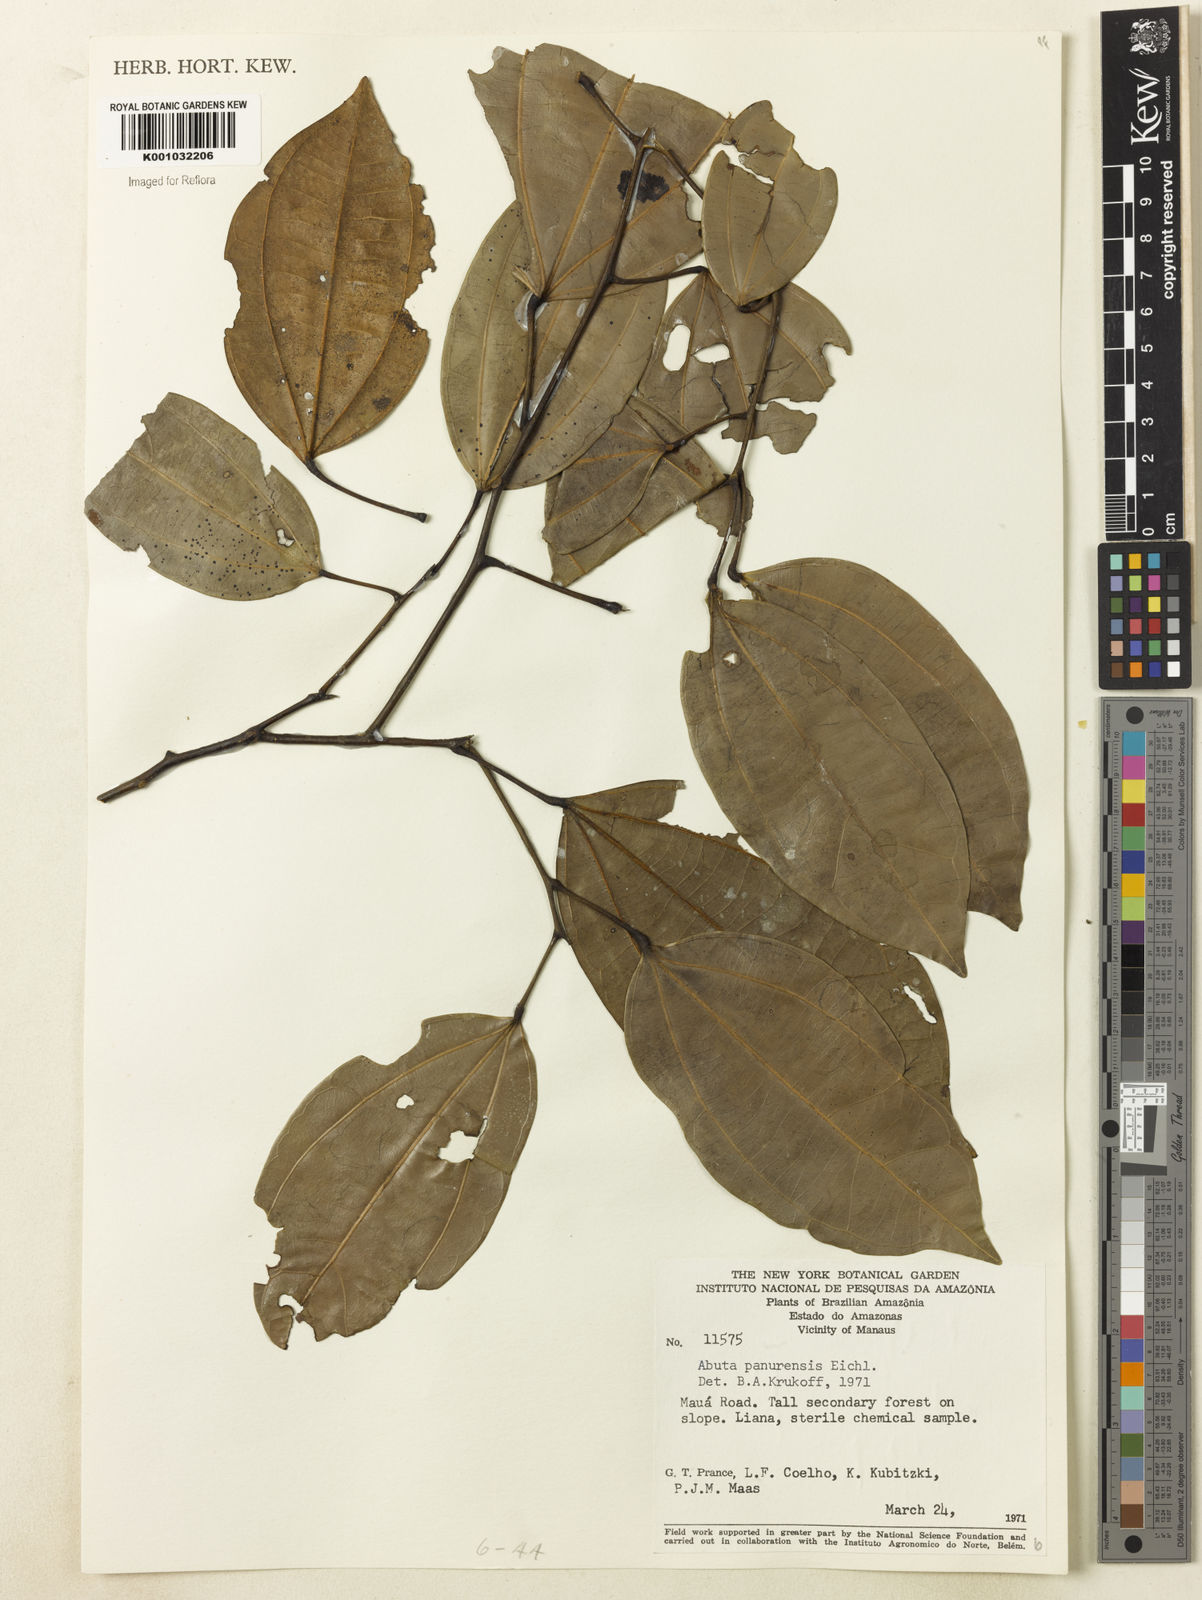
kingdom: Plantae
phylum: Tracheophyta
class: Magnoliopsida
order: Ranunculales
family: Menispermaceae
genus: Abuta
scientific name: Abuta panurensis
